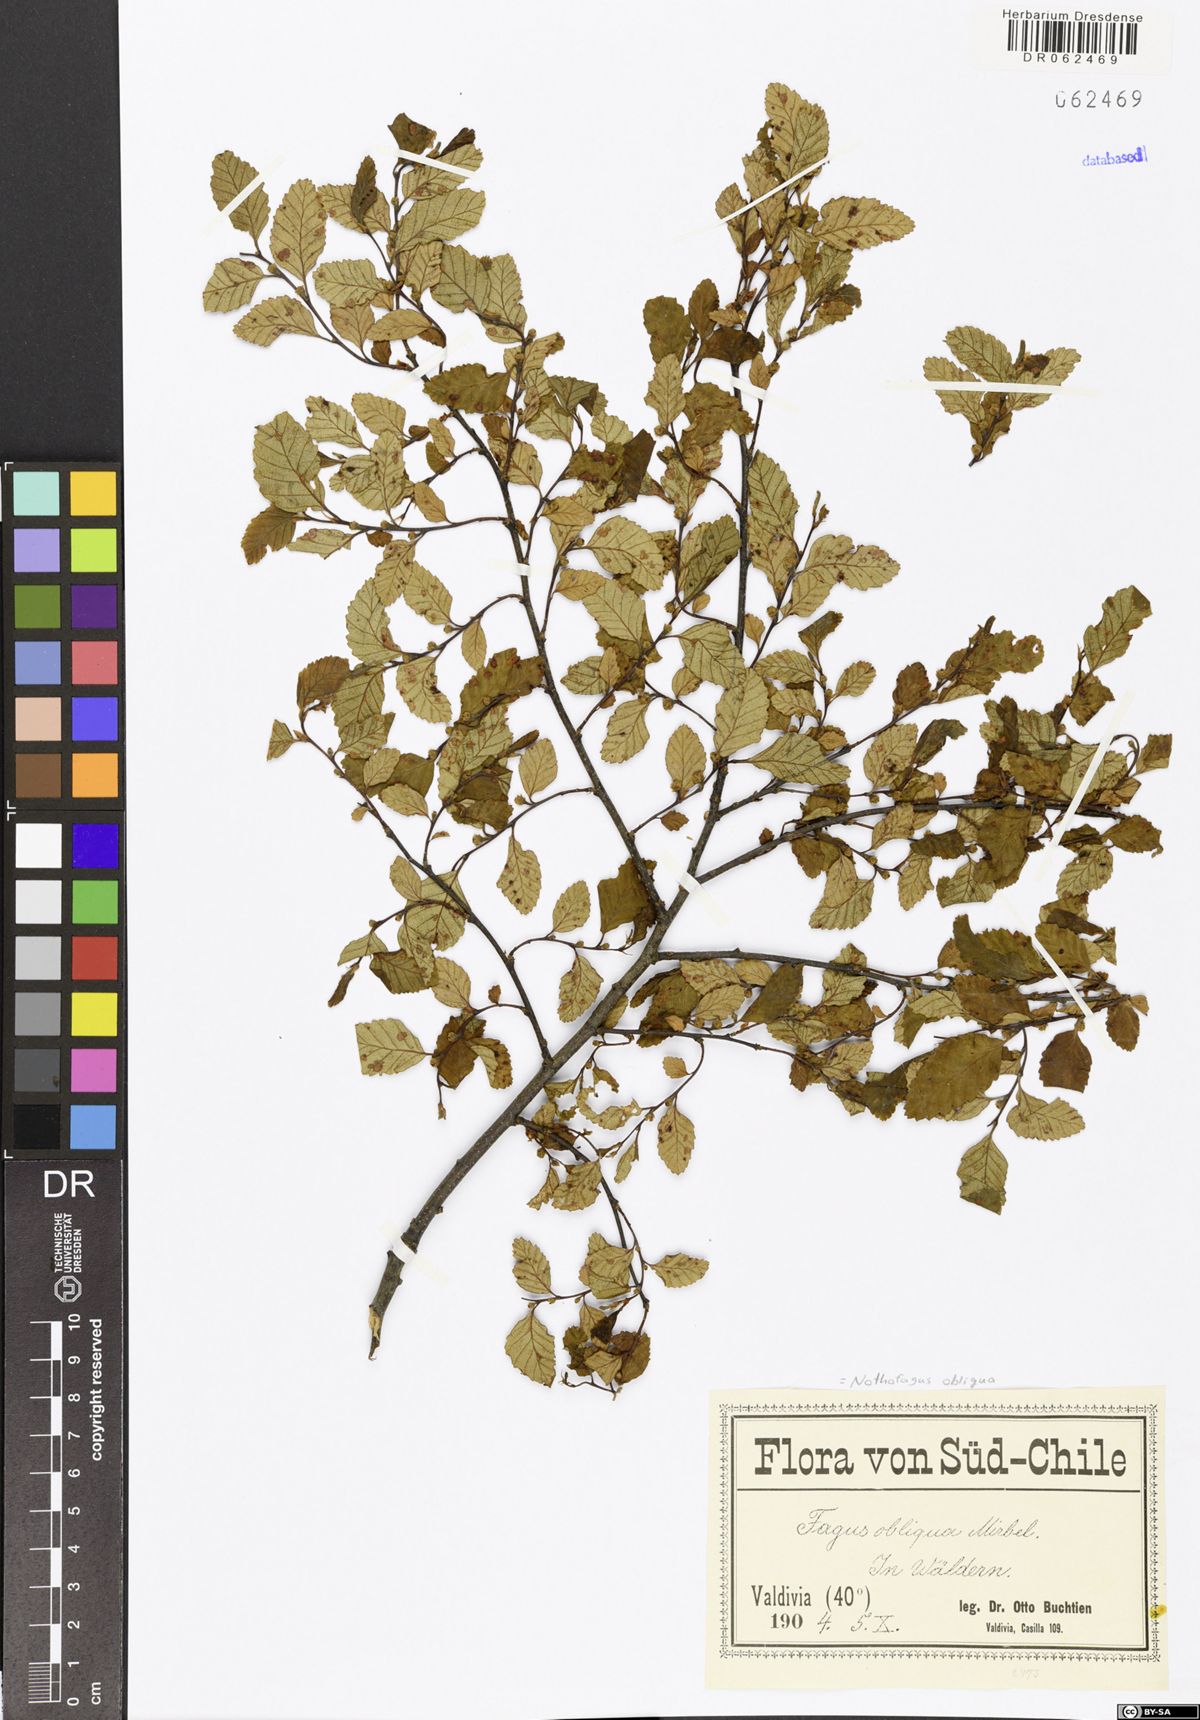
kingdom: Plantae
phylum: Tracheophyta
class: Magnoliopsida
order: Fagales
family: Nothofagaceae
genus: Nothofagus
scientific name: Nothofagus obliqua
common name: Roble beech
